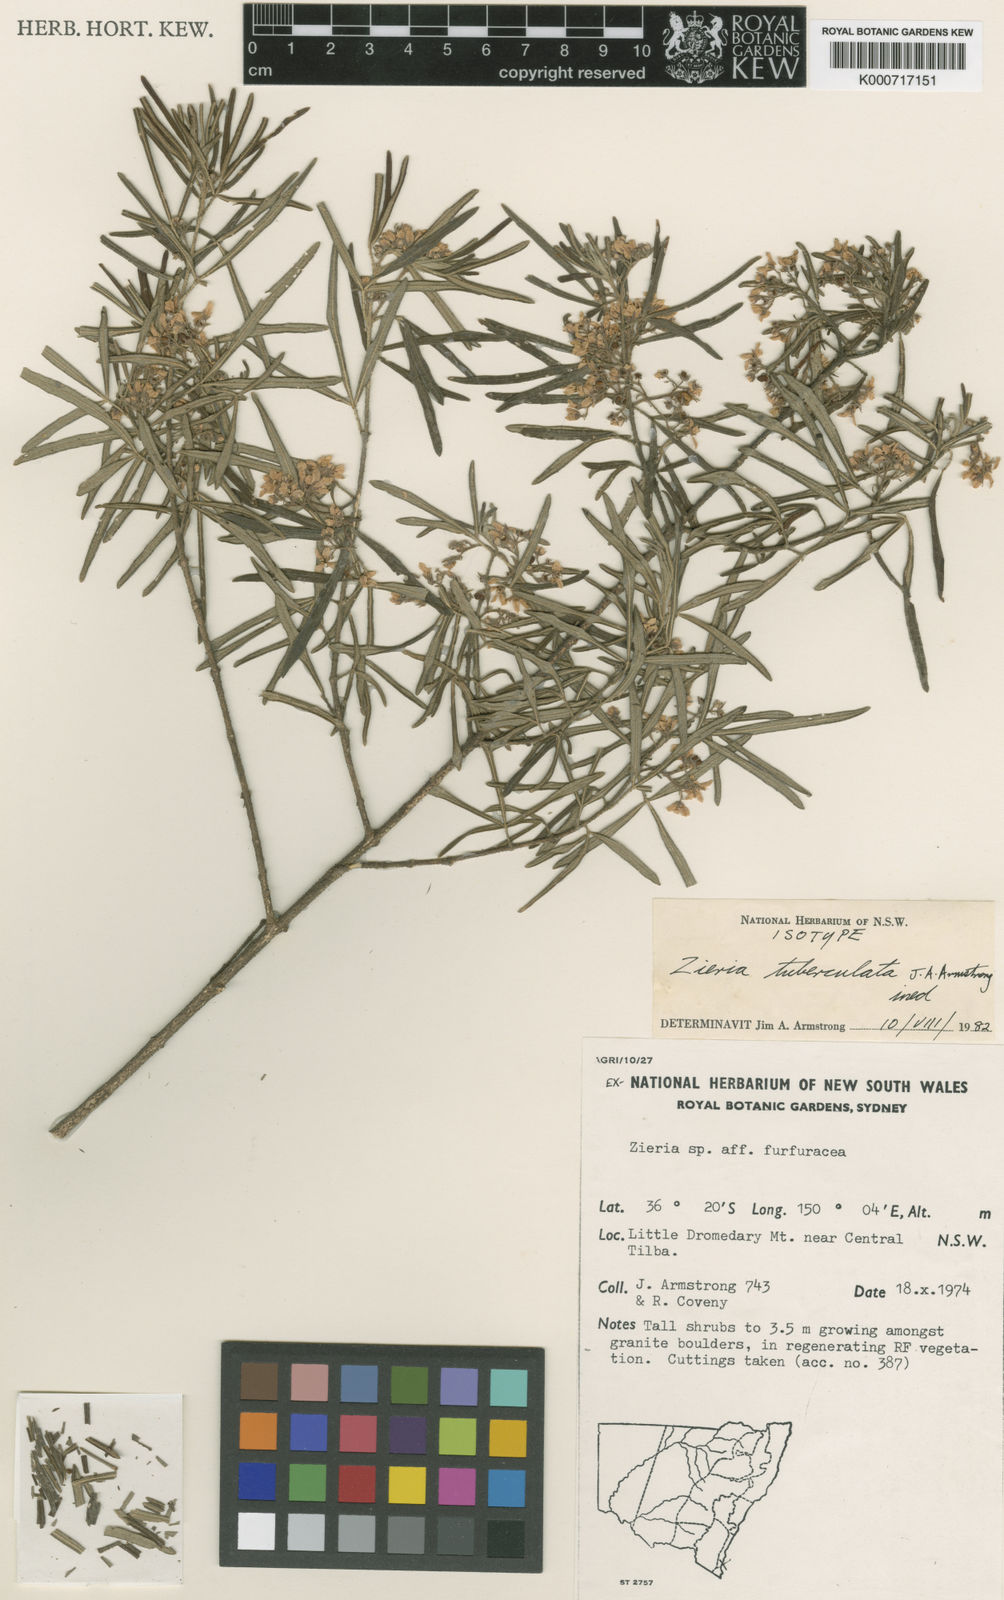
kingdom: Plantae
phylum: Tracheophyta
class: Magnoliopsida
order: Sapindales
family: Rutaceae
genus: Zieria
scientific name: Zieria tuberculata
